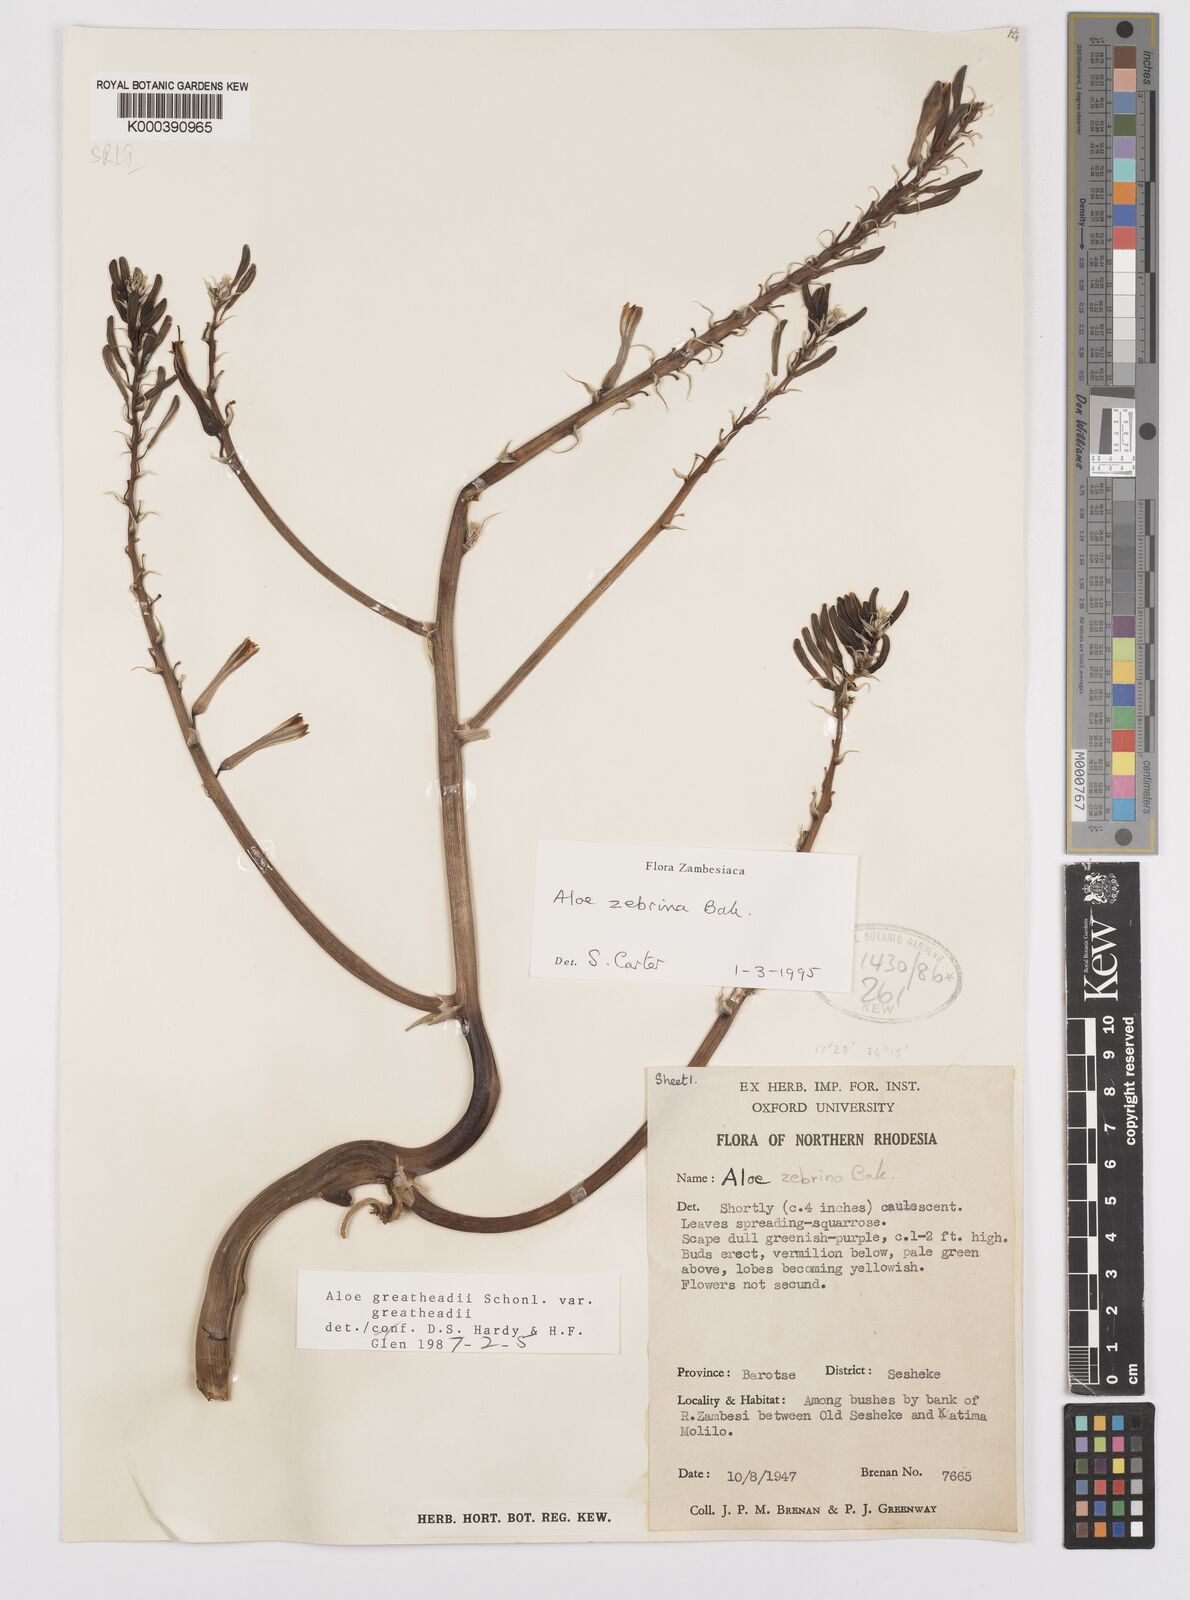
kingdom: Plantae
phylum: Tracheophyta
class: Liliopsida
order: Asparagales
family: Asphodelaceae
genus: Aloe
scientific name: Aloe zebrina
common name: Zebra-leaf aloe
